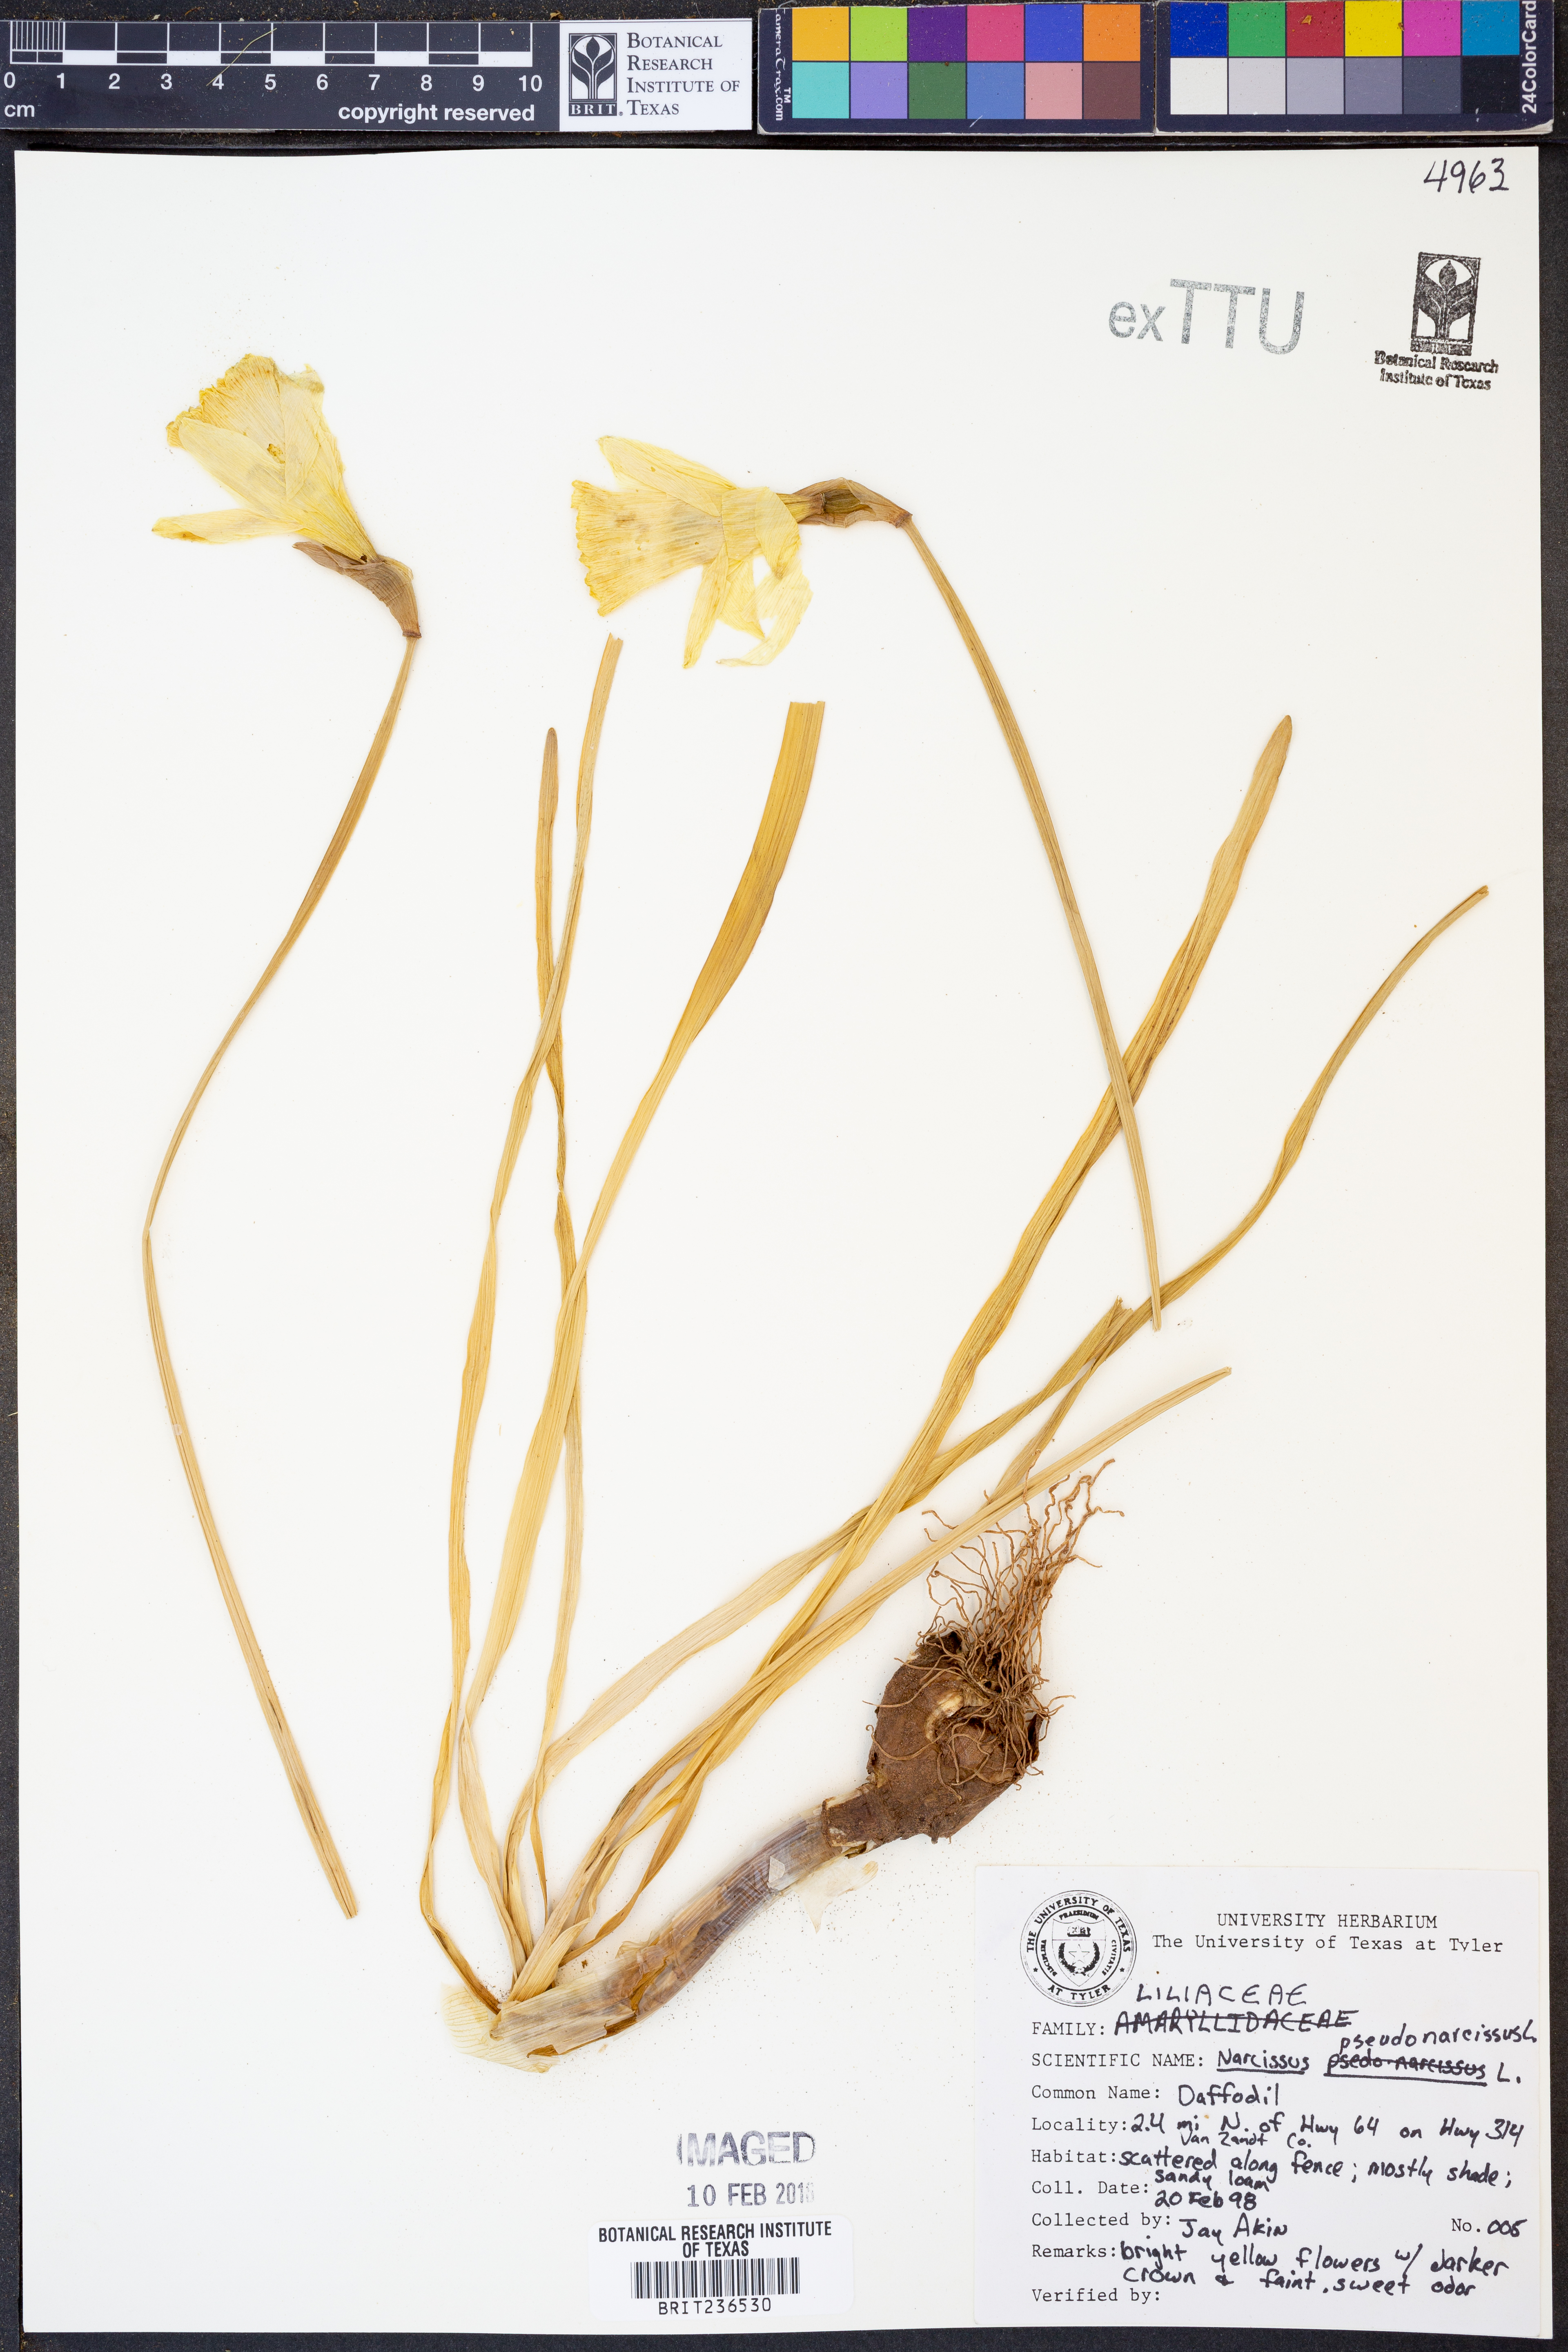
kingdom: Plantae
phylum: Tracheophyta
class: Liliopsida
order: Asparagales
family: Amaryllidaceae
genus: Narcissus
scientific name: Narcissus pseudonarcissus
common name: Daffodil
